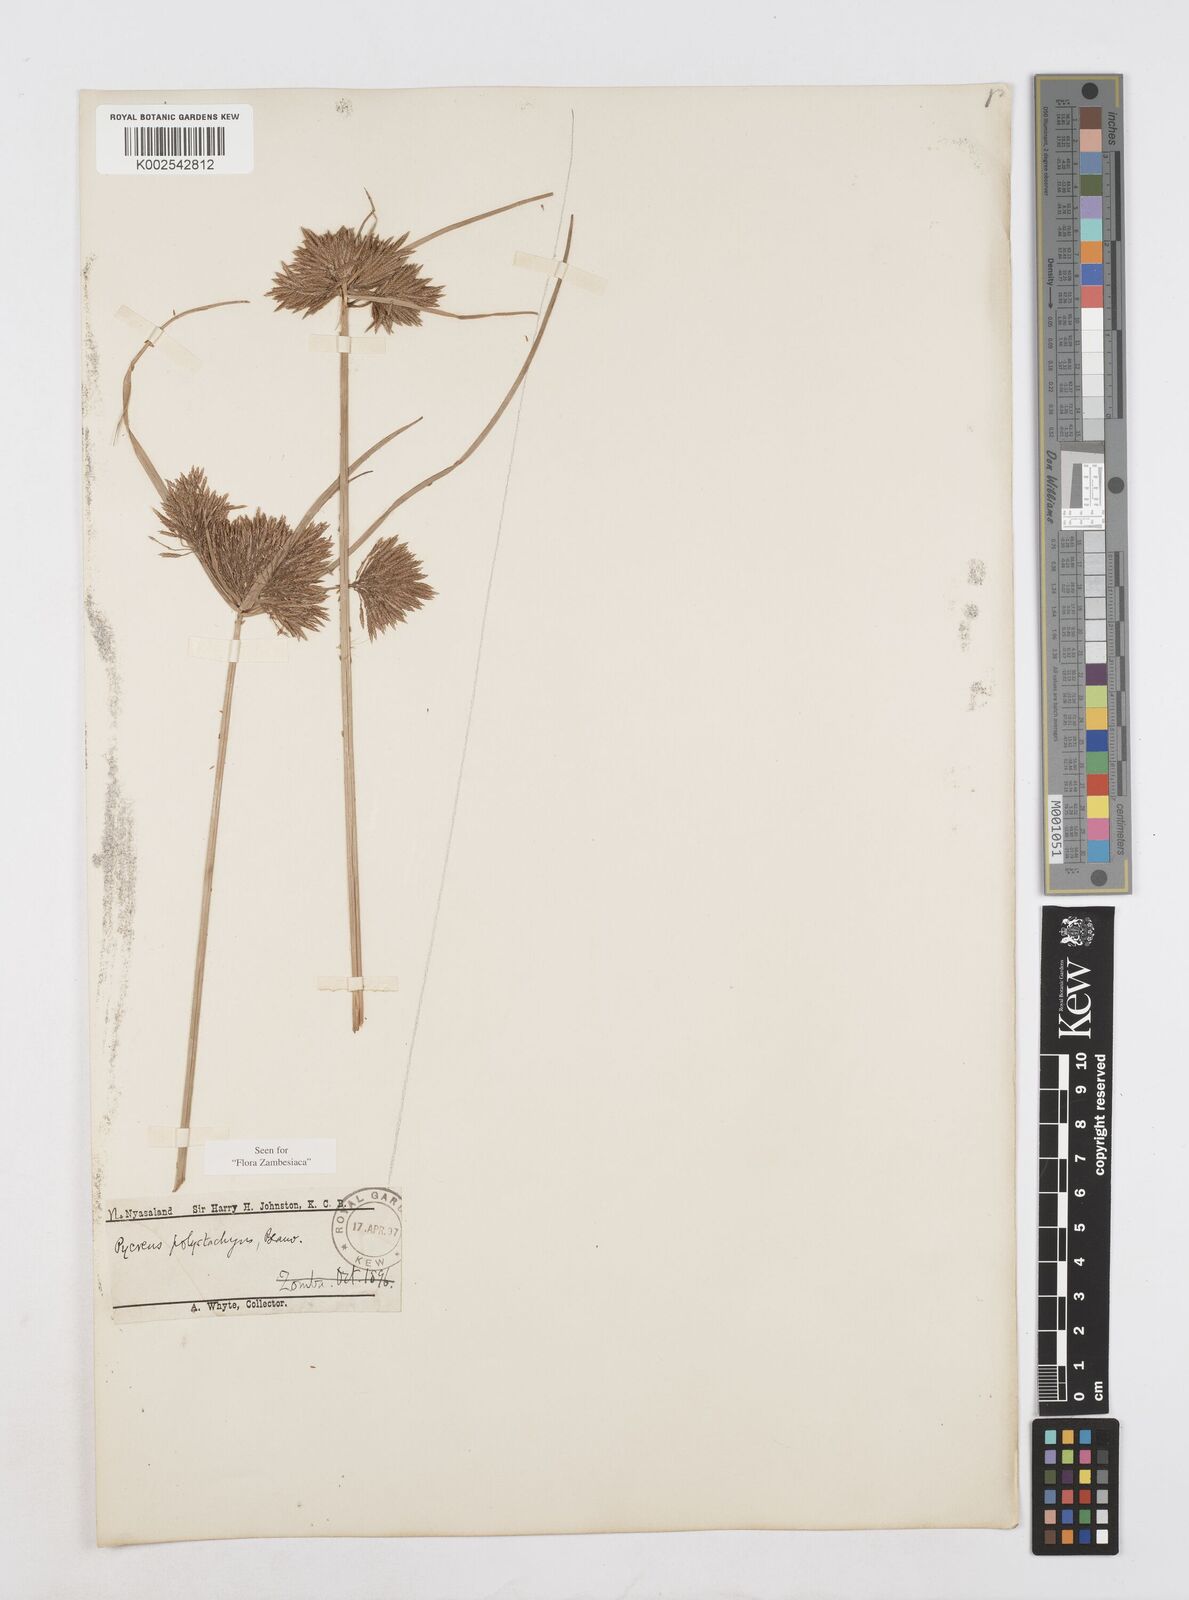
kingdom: Plantae
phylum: Tracheophyta
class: Liliopsida
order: Poales
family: Cyperaceae
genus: Cyperus
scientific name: Cyperus polystachyos
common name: Bunchy flat sedge
